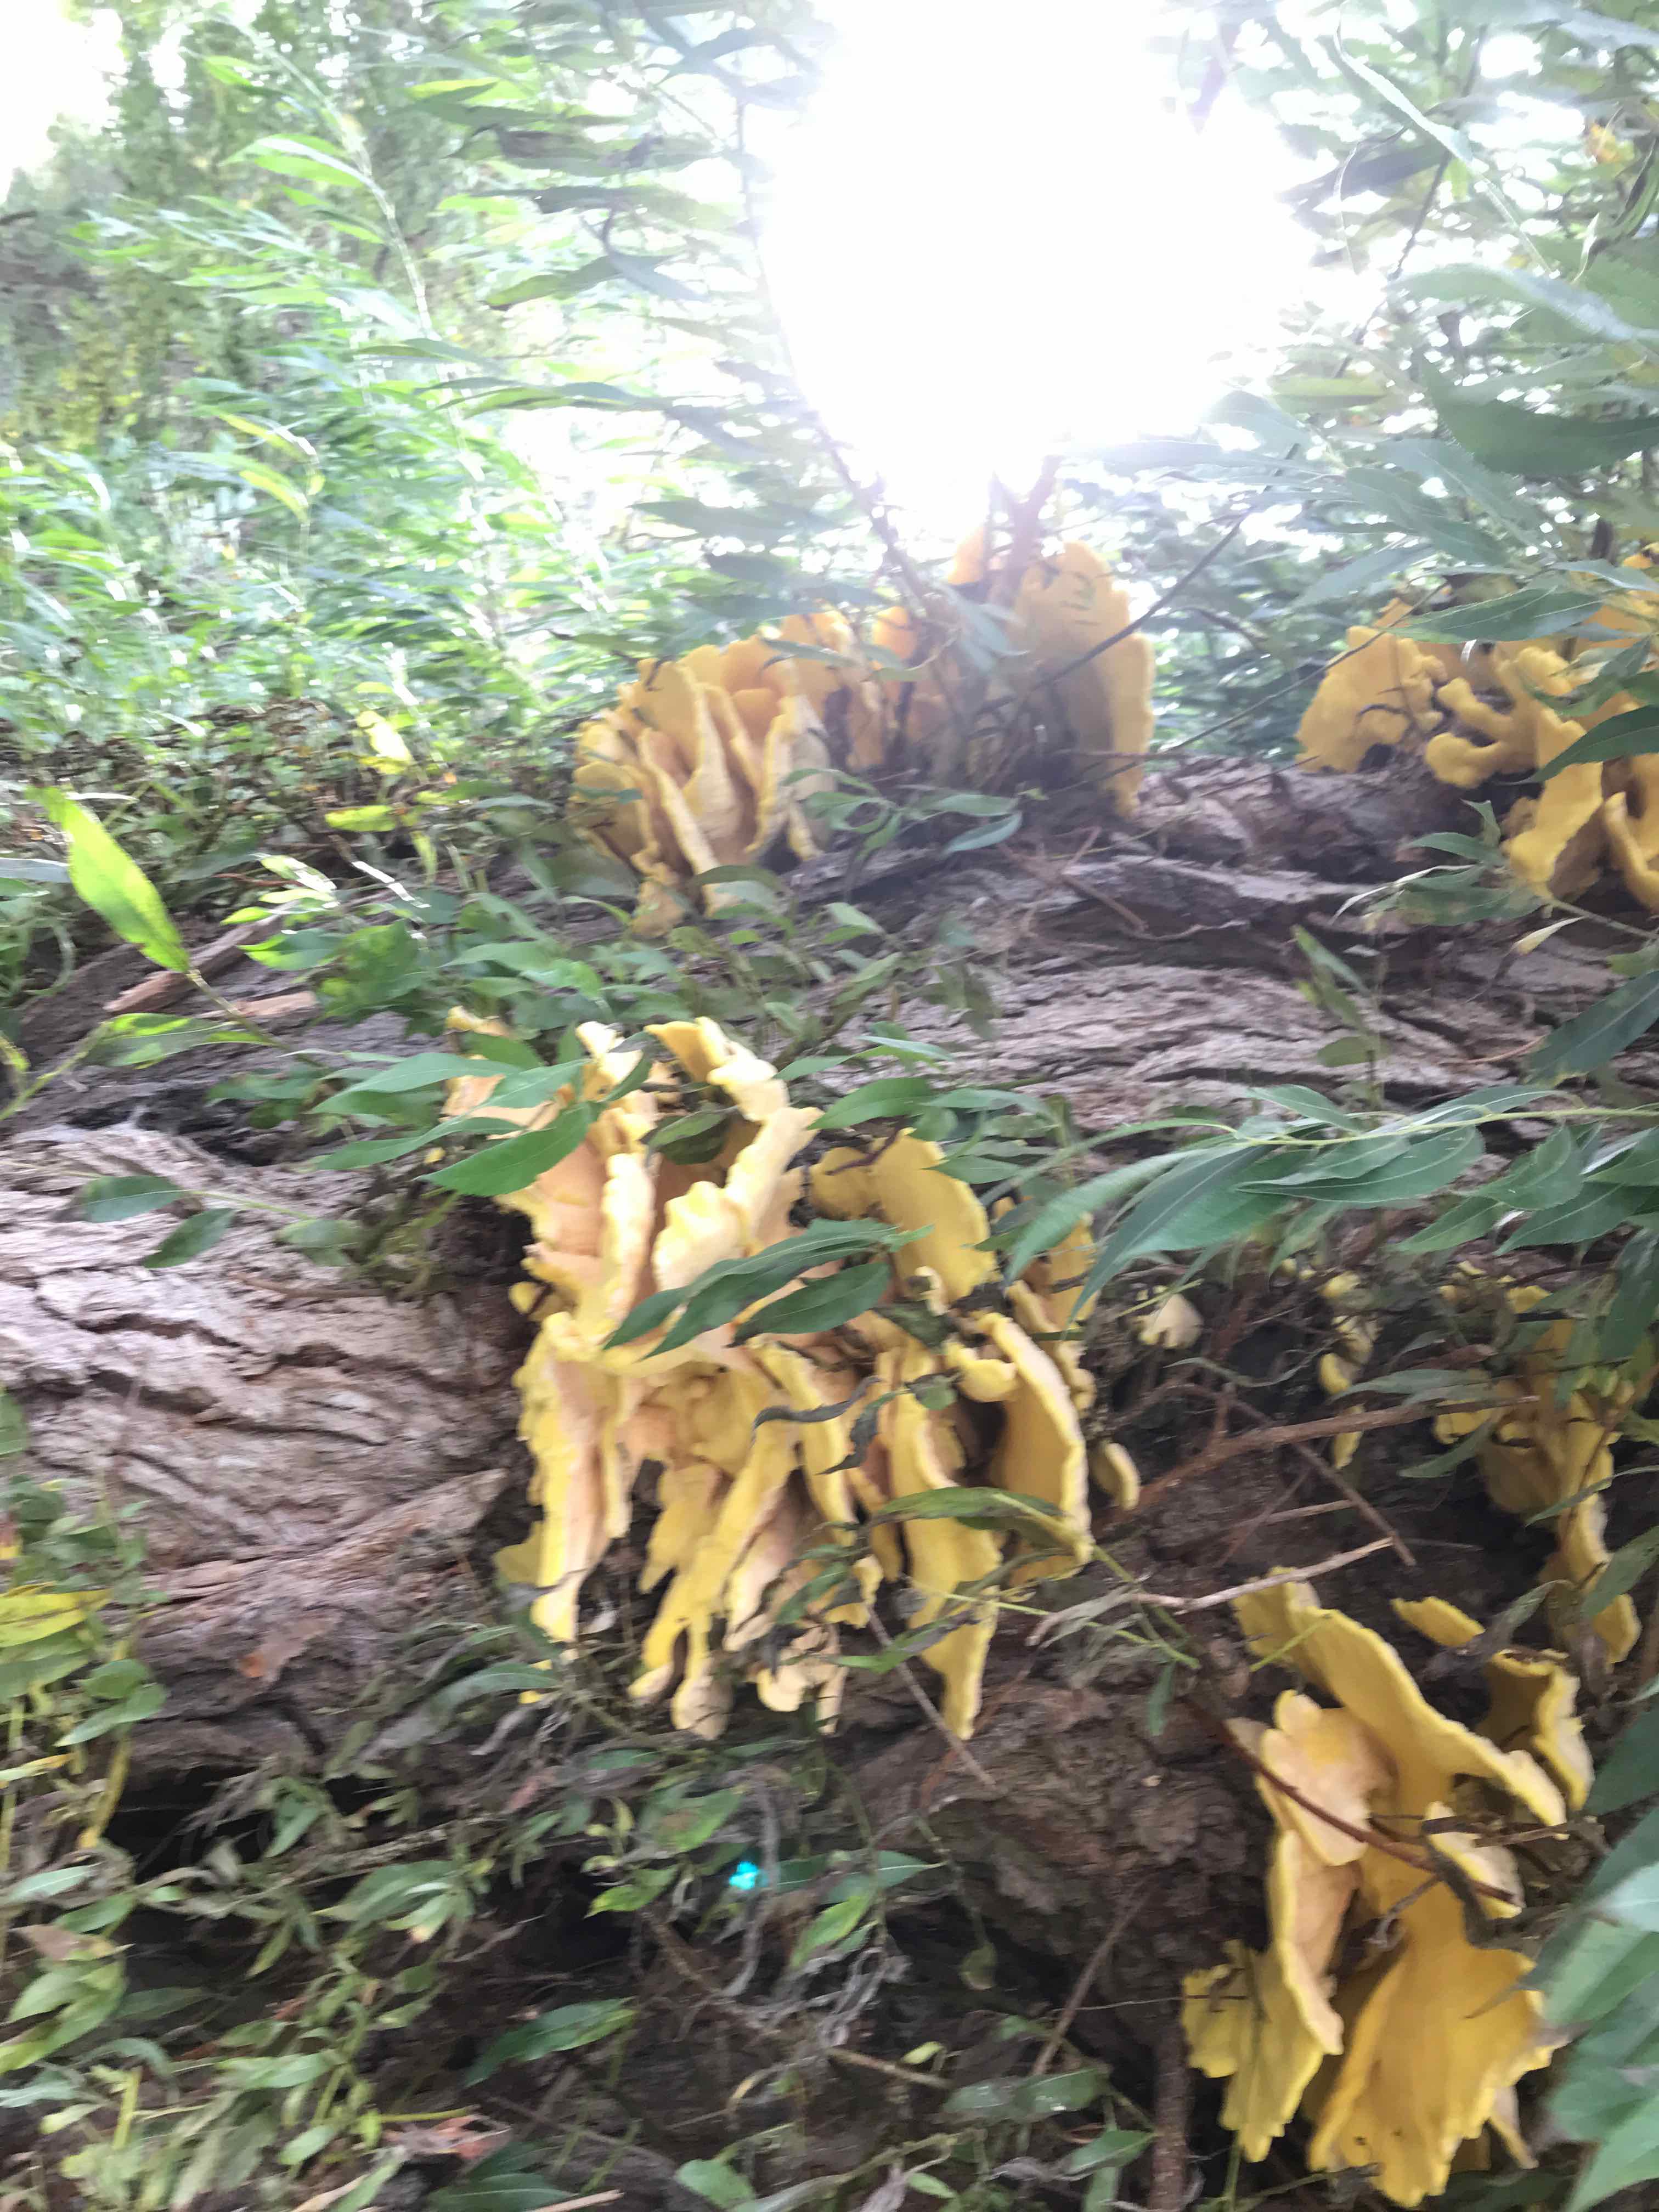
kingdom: Fungi
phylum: Basidiomycota
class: Agaricomycetes
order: Polyporales
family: Laetiporaceae
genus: Laetiporus
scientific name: Laetiporus sulphureus
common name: svovlporesvamp
